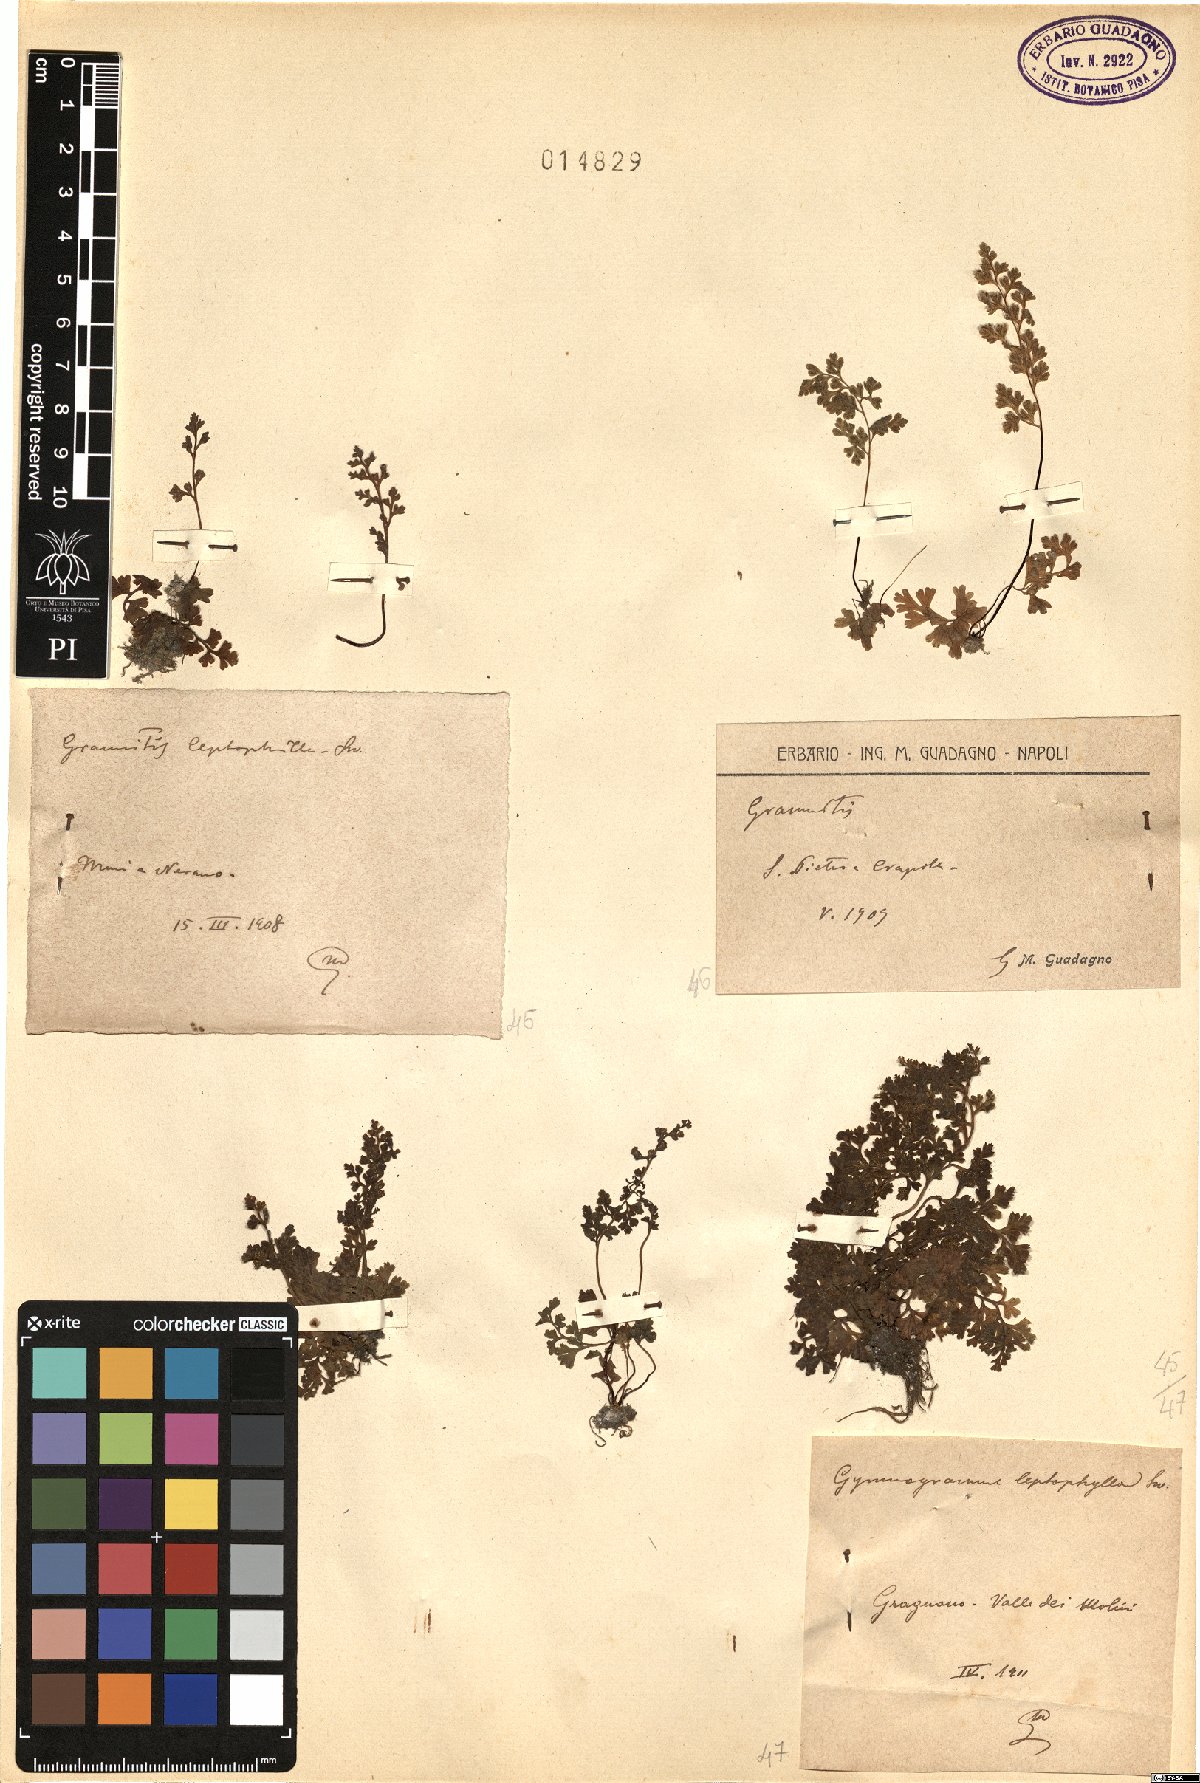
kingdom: Plantae
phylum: Tracheophyta
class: Polypodiopsida
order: Polypodiales
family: Pteridaceae
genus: Anogramma
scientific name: Anogramma leptophylla
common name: Jersey fern
